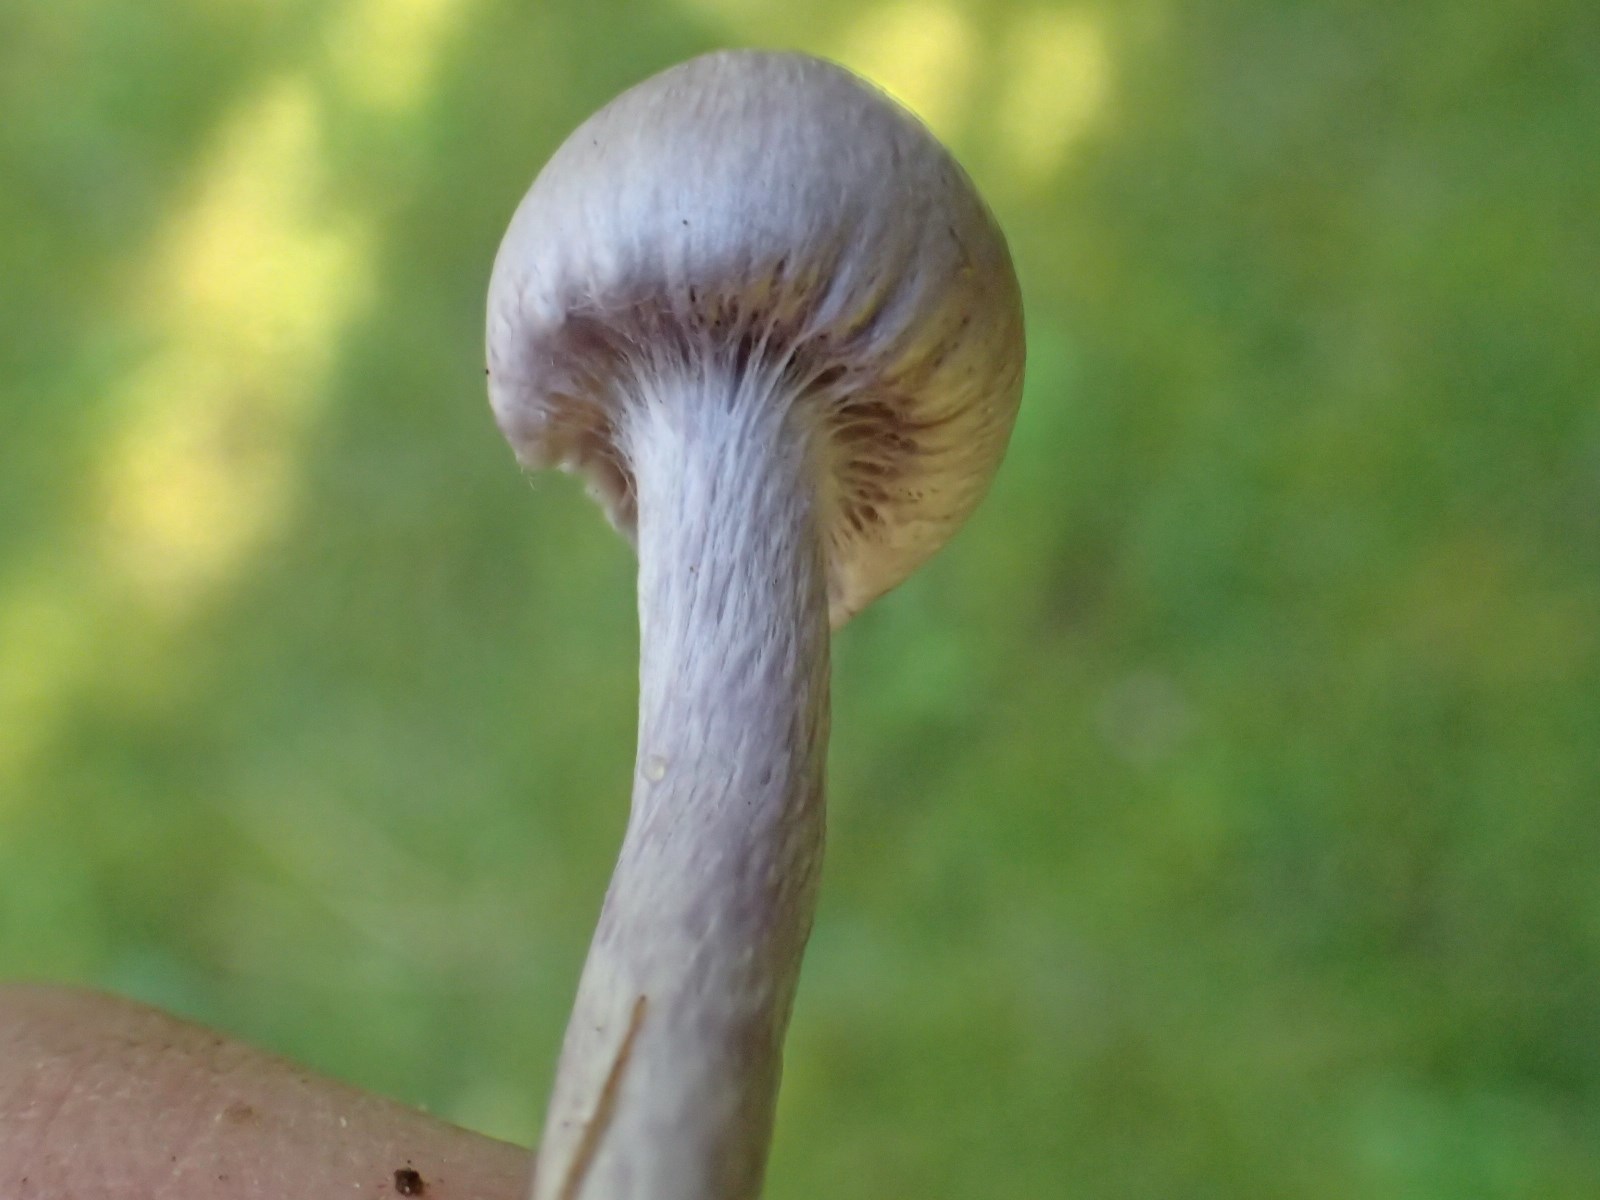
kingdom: Fungi
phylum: Basidiomycota
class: Agaricomycetes
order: Agaricales
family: Inocybaceae
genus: Inocybe
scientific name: Inocybe geophylla
